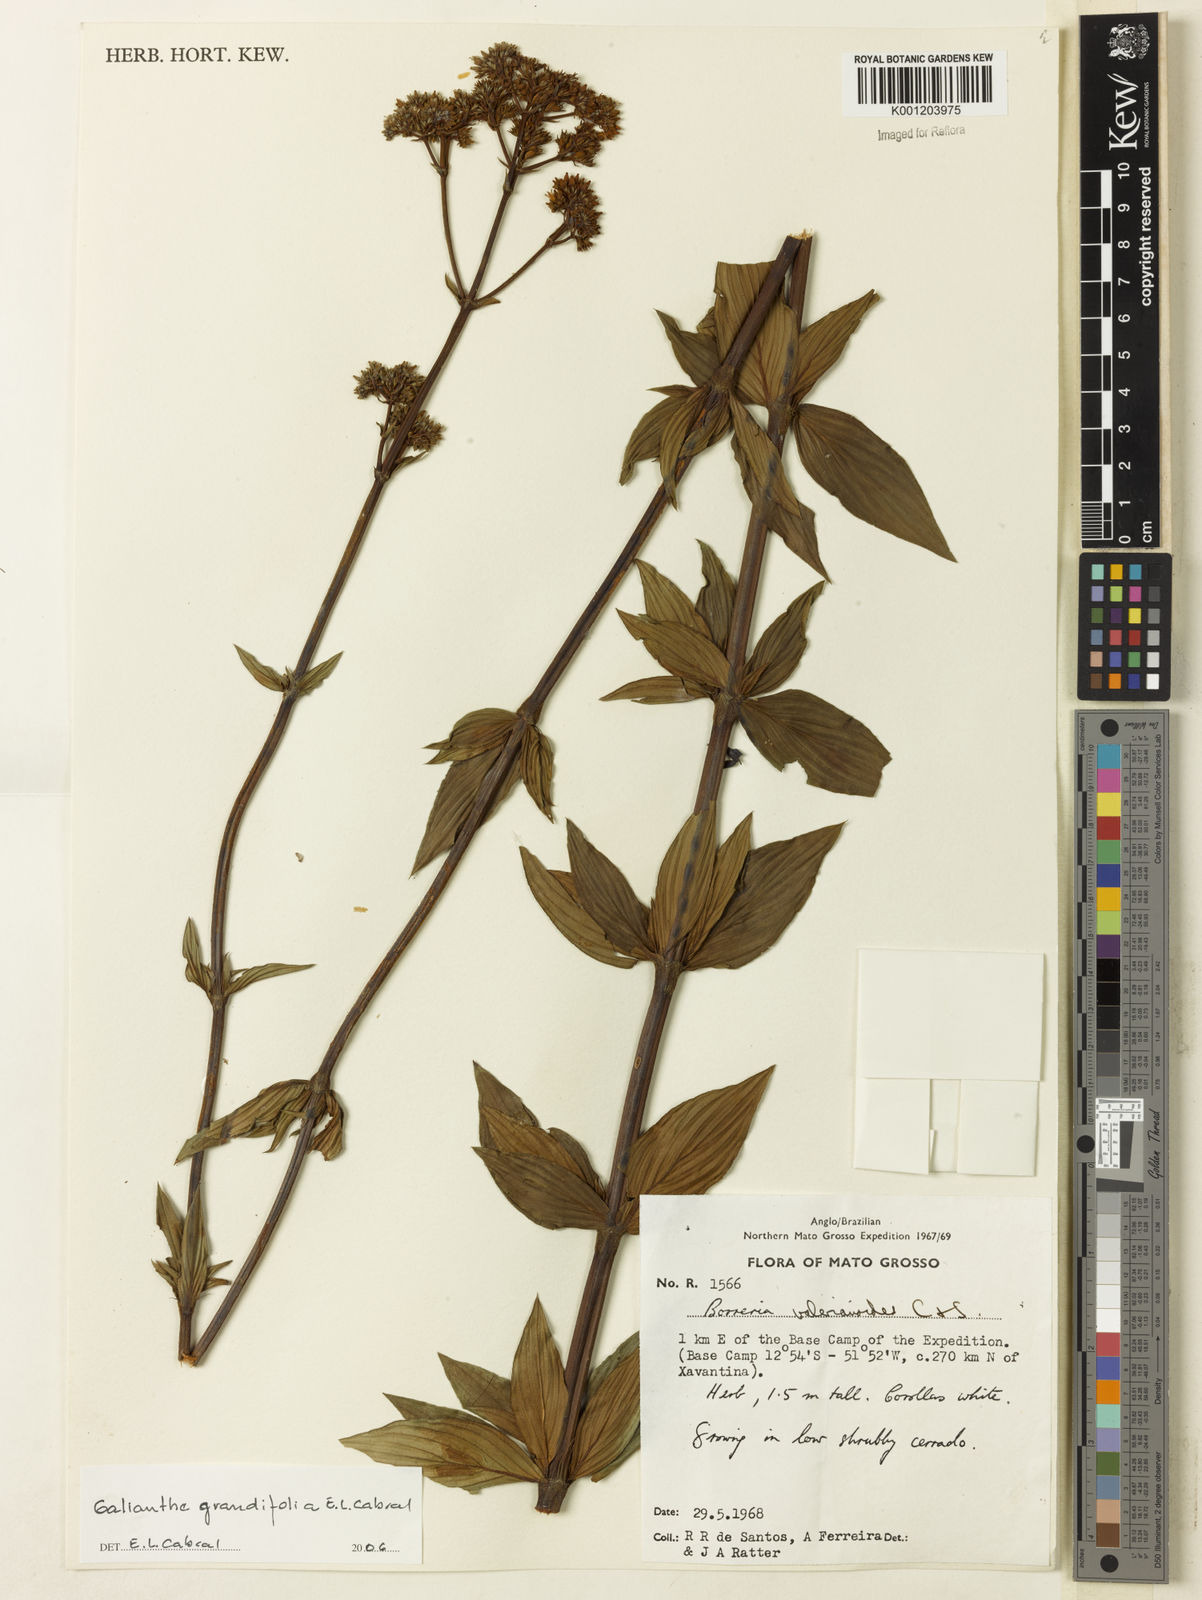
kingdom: Plantae
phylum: Tracheophyta
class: Magnoliopsida
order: Gentianales
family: Rubiaceae
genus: Galianthe
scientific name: Galianthe grandifolia
